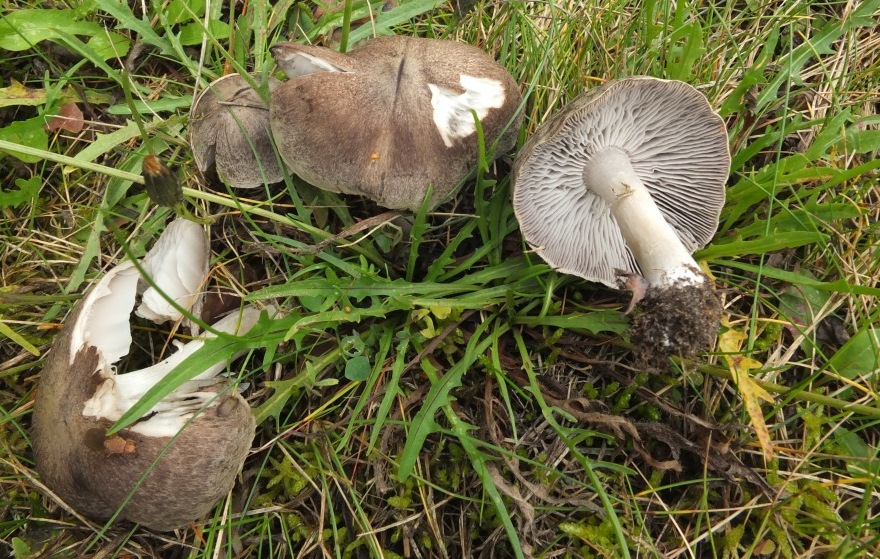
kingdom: Fungi
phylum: Basidiomycota
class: Agaricomycetes
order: Agaricales
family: Tricholomataceae
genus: Tricholoma
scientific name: Tricholoma terreum
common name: jordfarvet ridderhat
